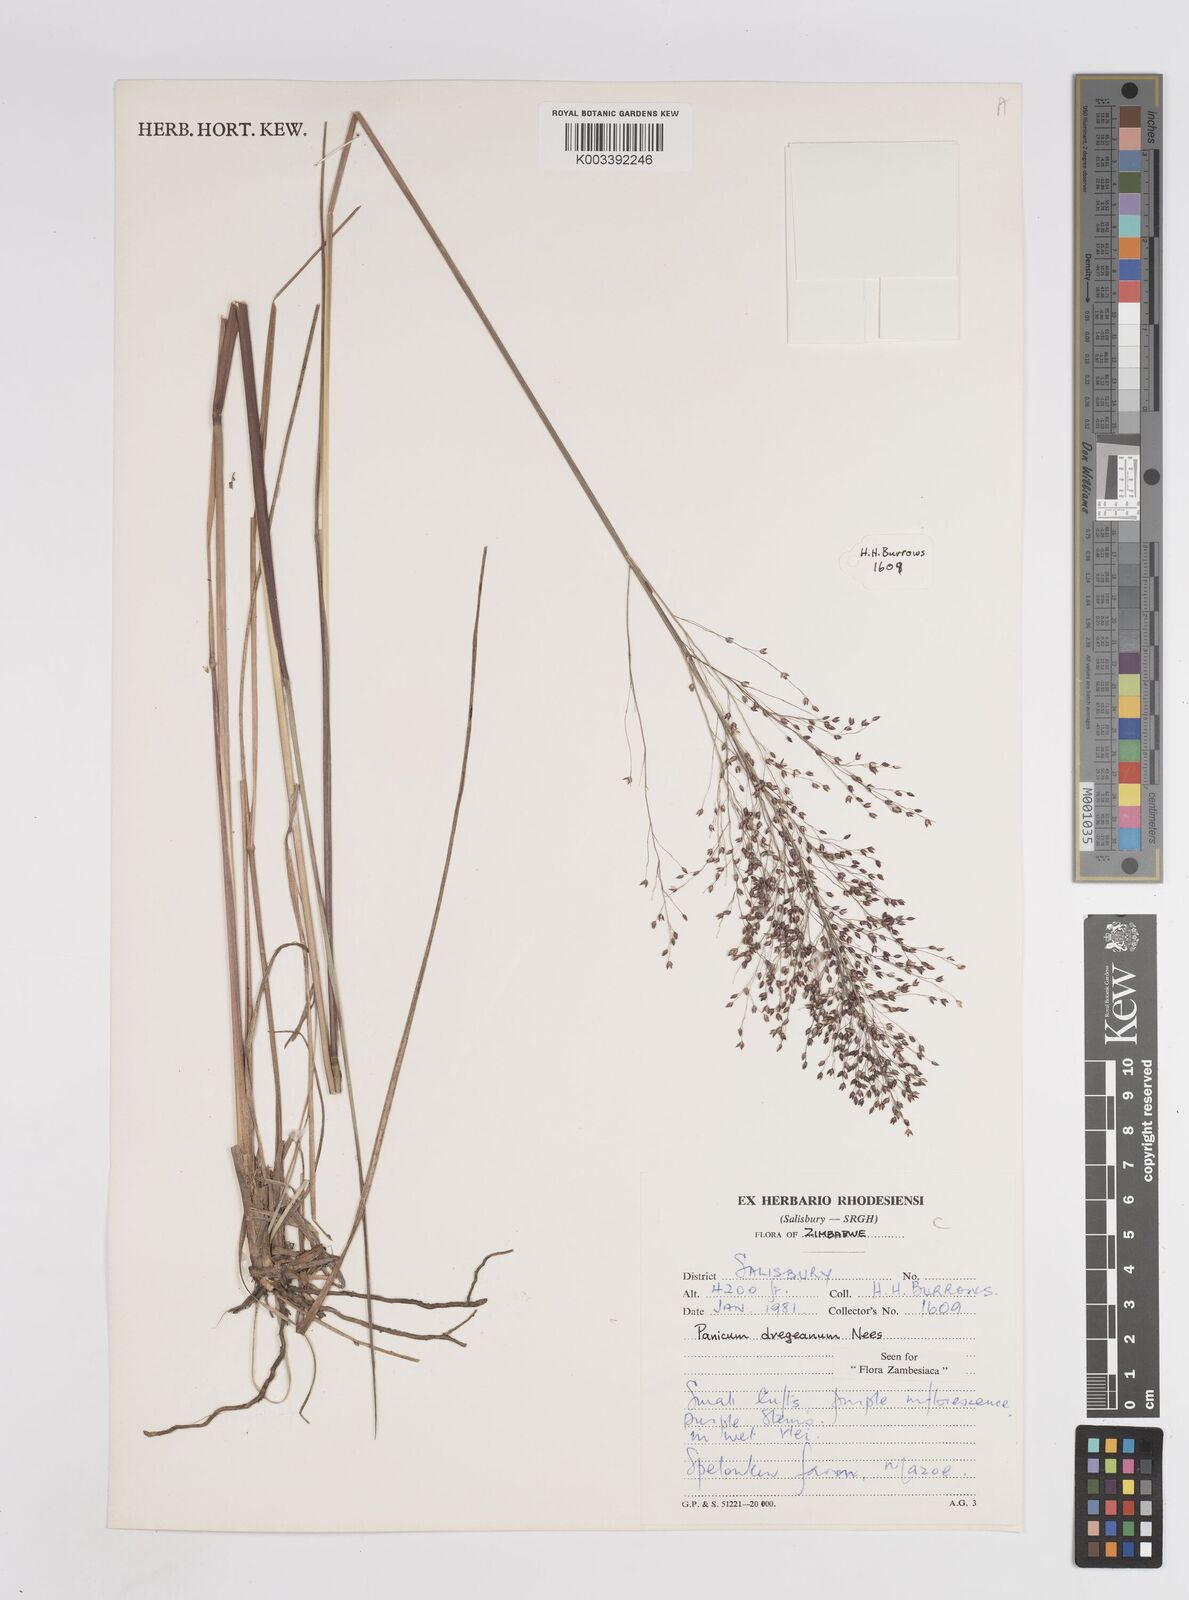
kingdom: Plantae
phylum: Tracheophyta
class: Liliopsida
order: Poales
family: Poaceae
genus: Panicum
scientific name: Panicum dregeanum
